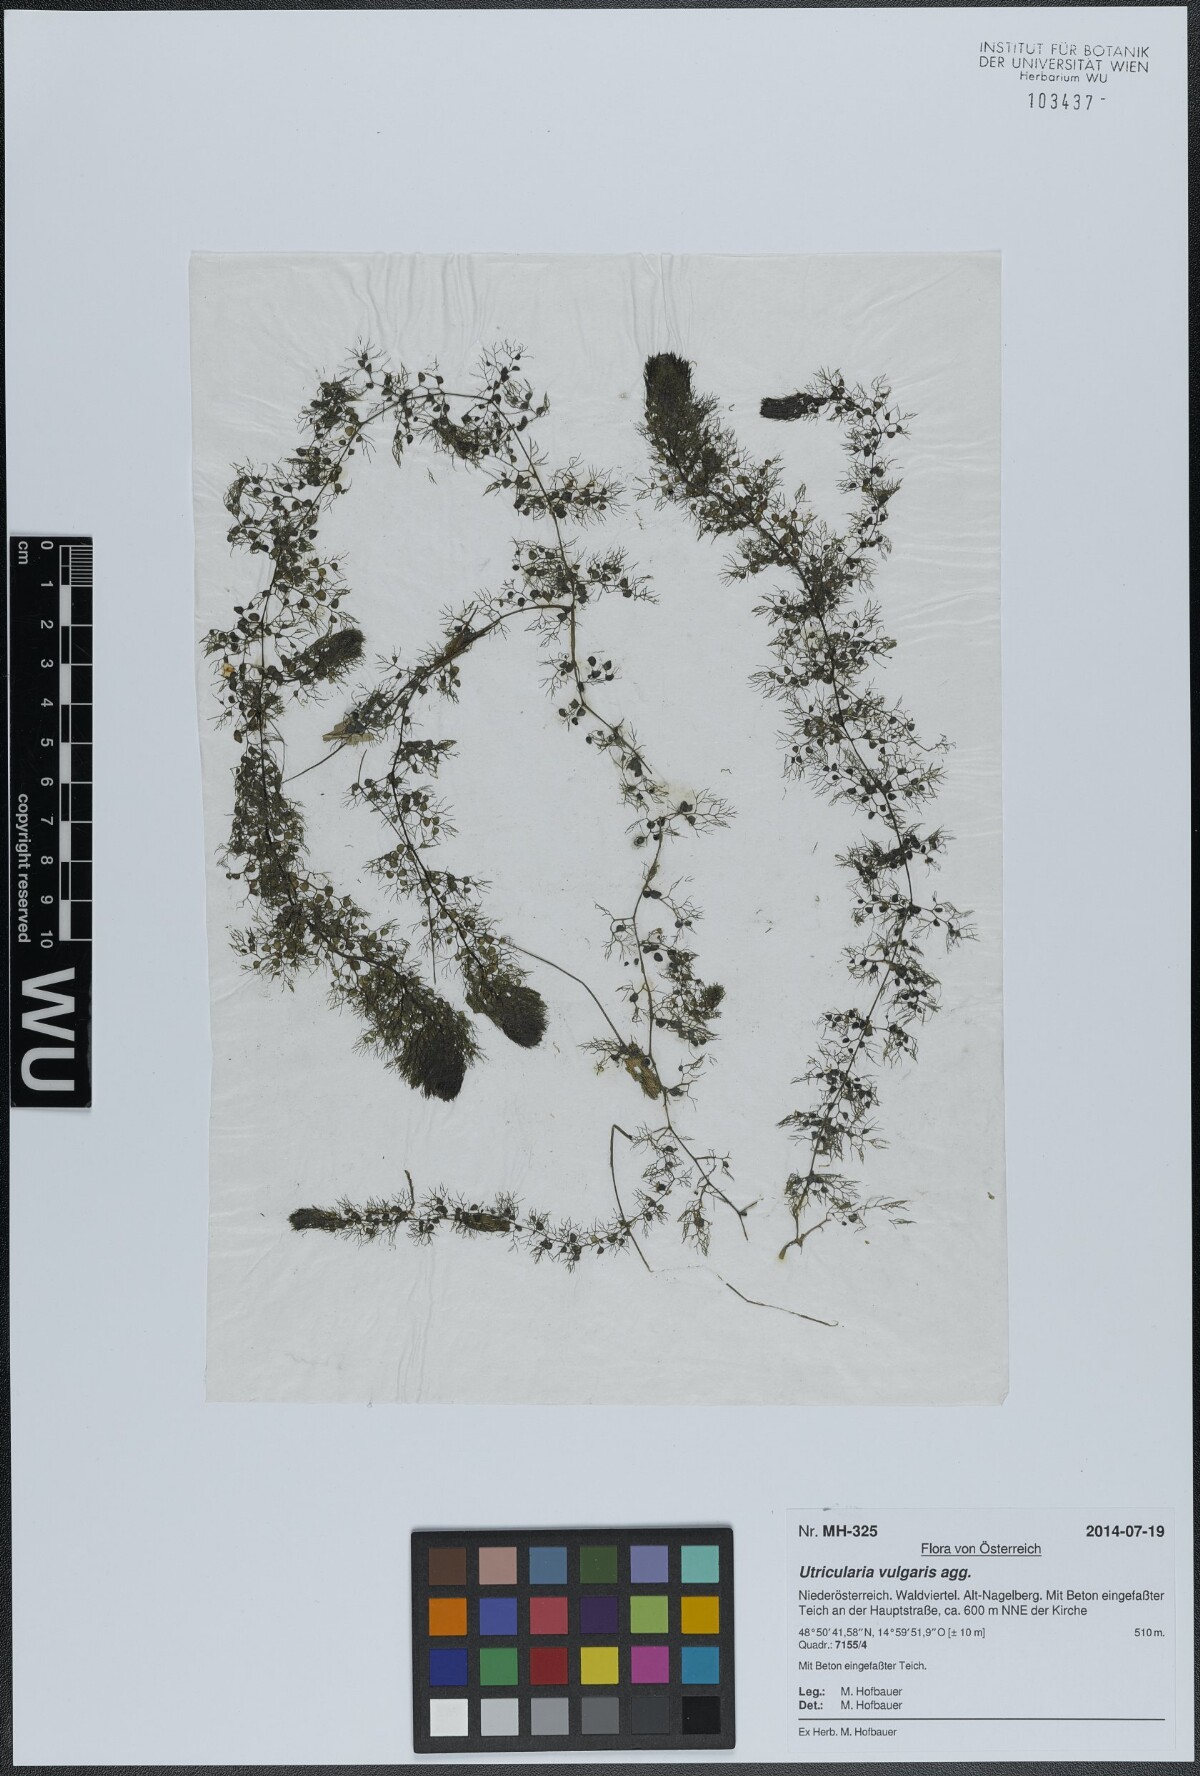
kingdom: Plantae
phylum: Tracheophyta
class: Magnoliopsida
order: Lamiales
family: Lentibulariaceae
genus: Utricularia
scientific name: Utricularia vulgaris
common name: Greater bladderwort
